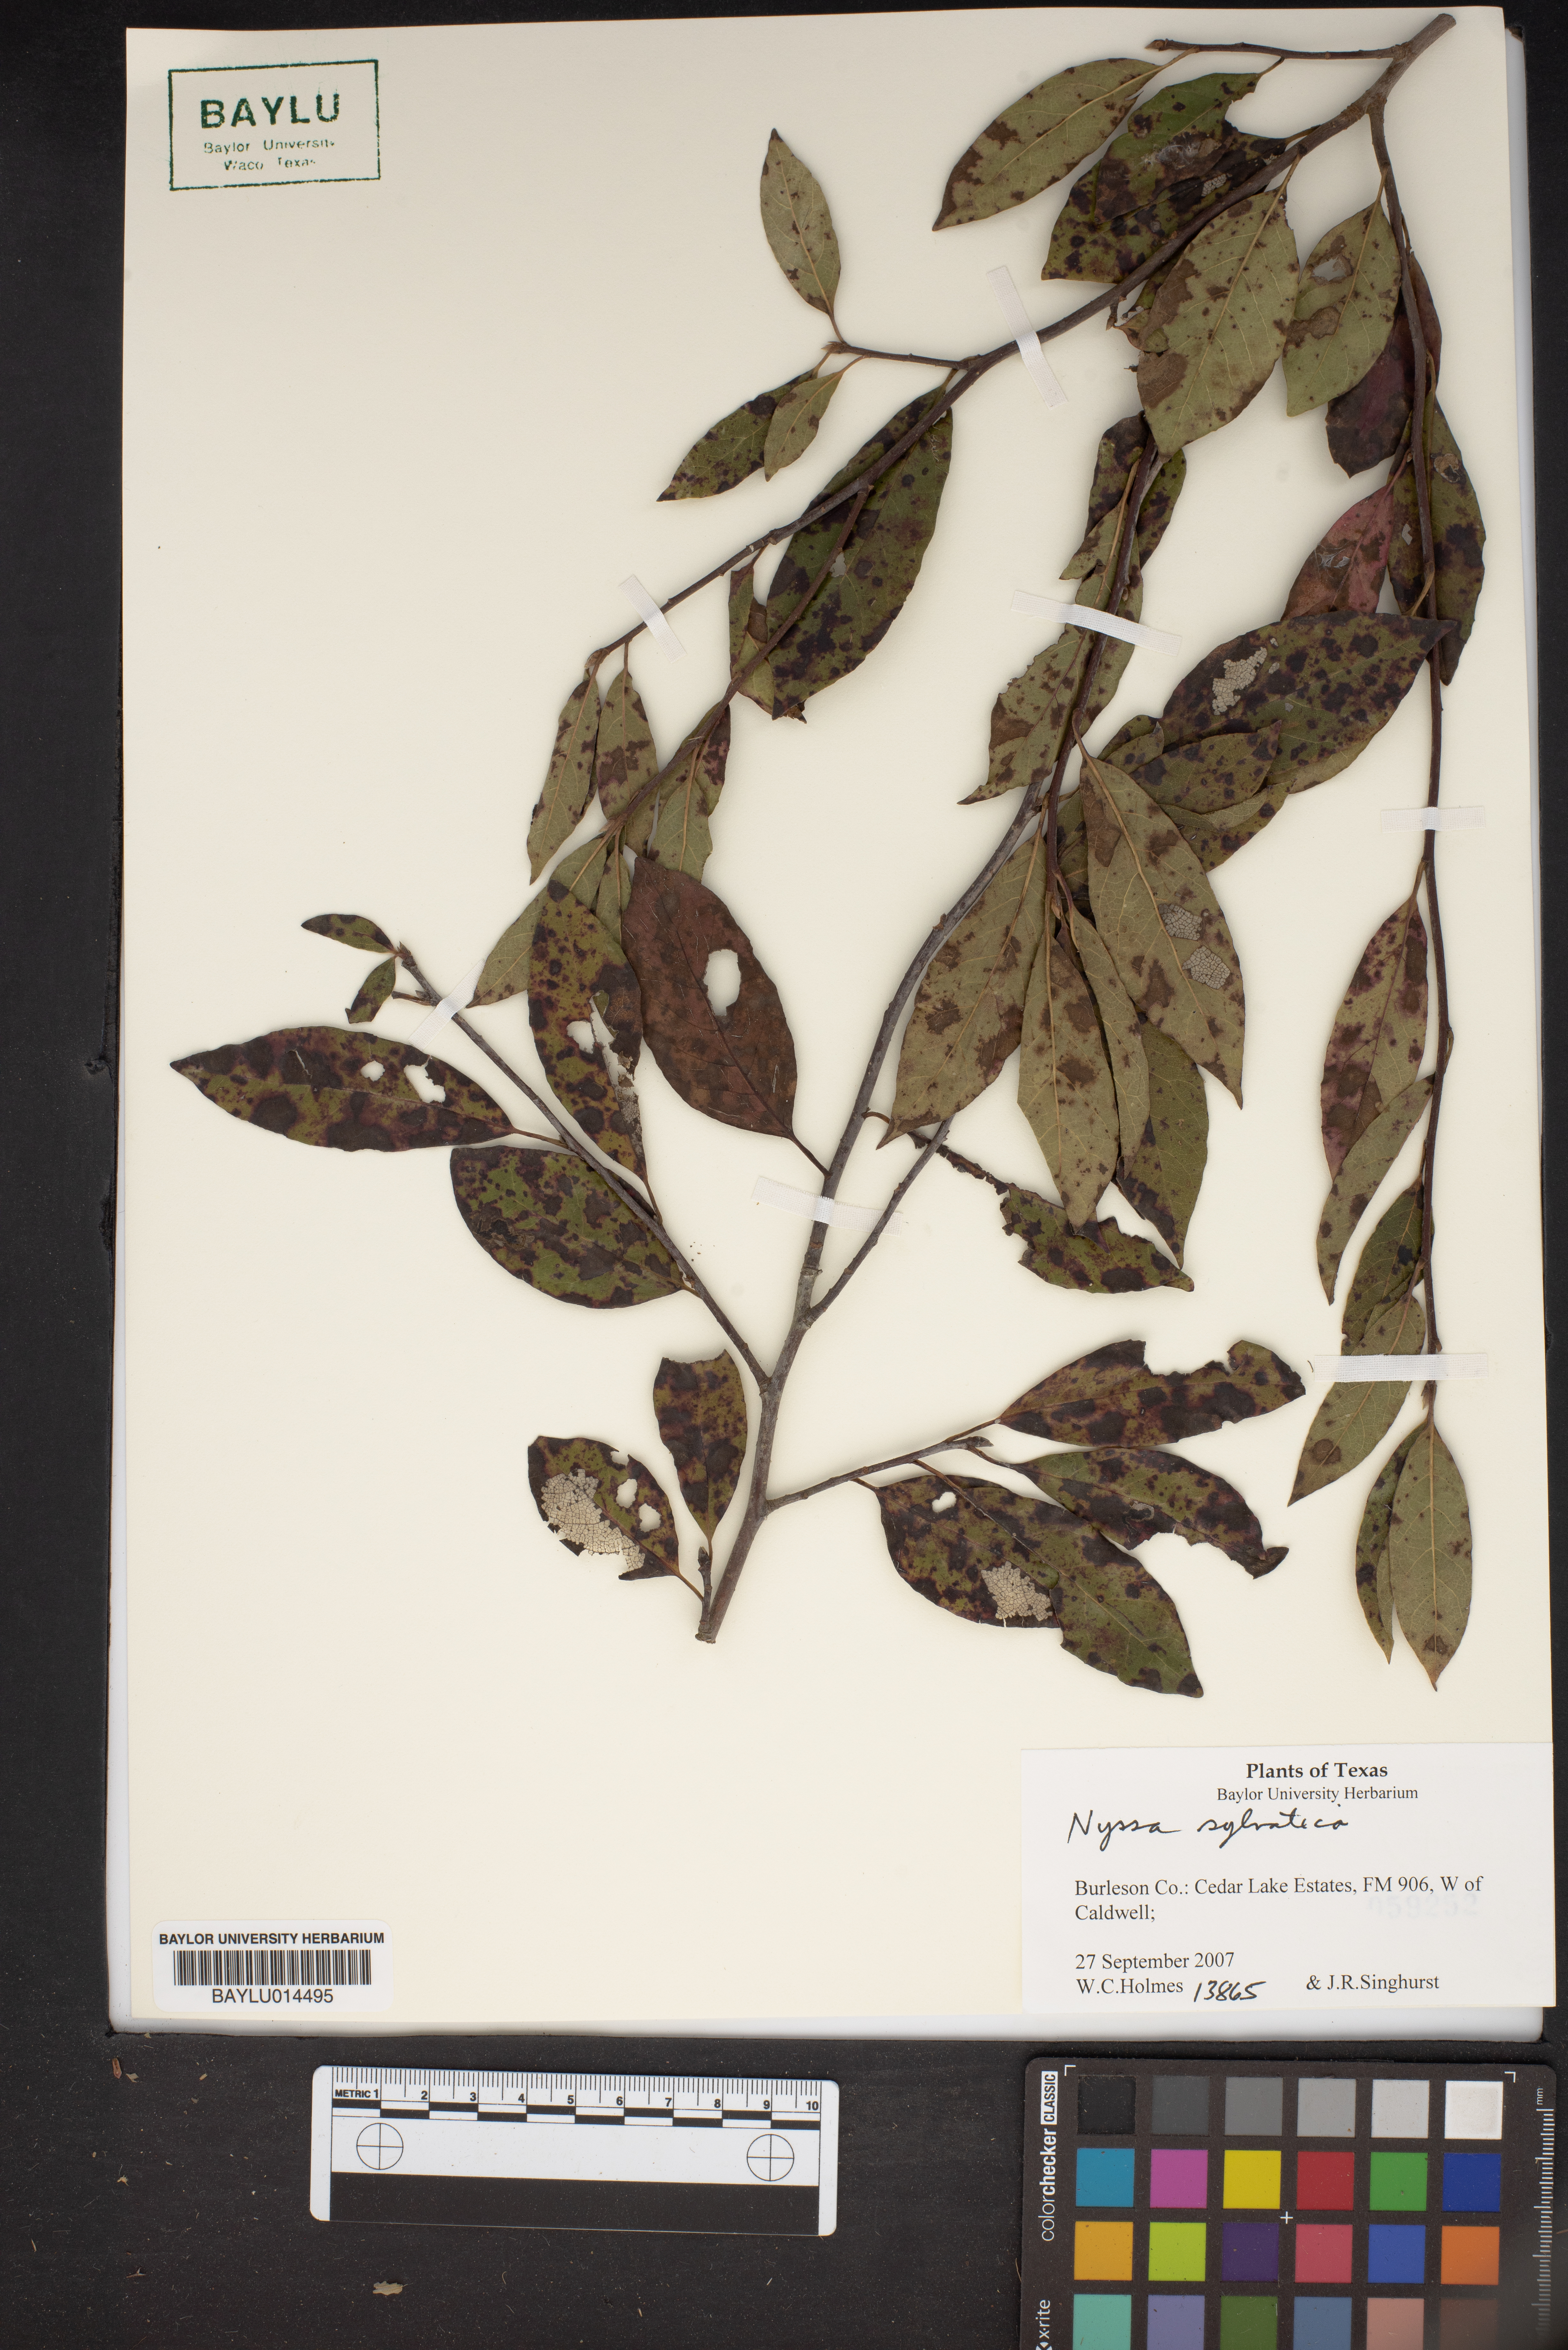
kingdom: Plantae
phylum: Tracheophyta
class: Magnoliopsida
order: Cornales
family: Nyssaceae
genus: Nyssa
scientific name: Nyssa sylvatica
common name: Black tupelo
